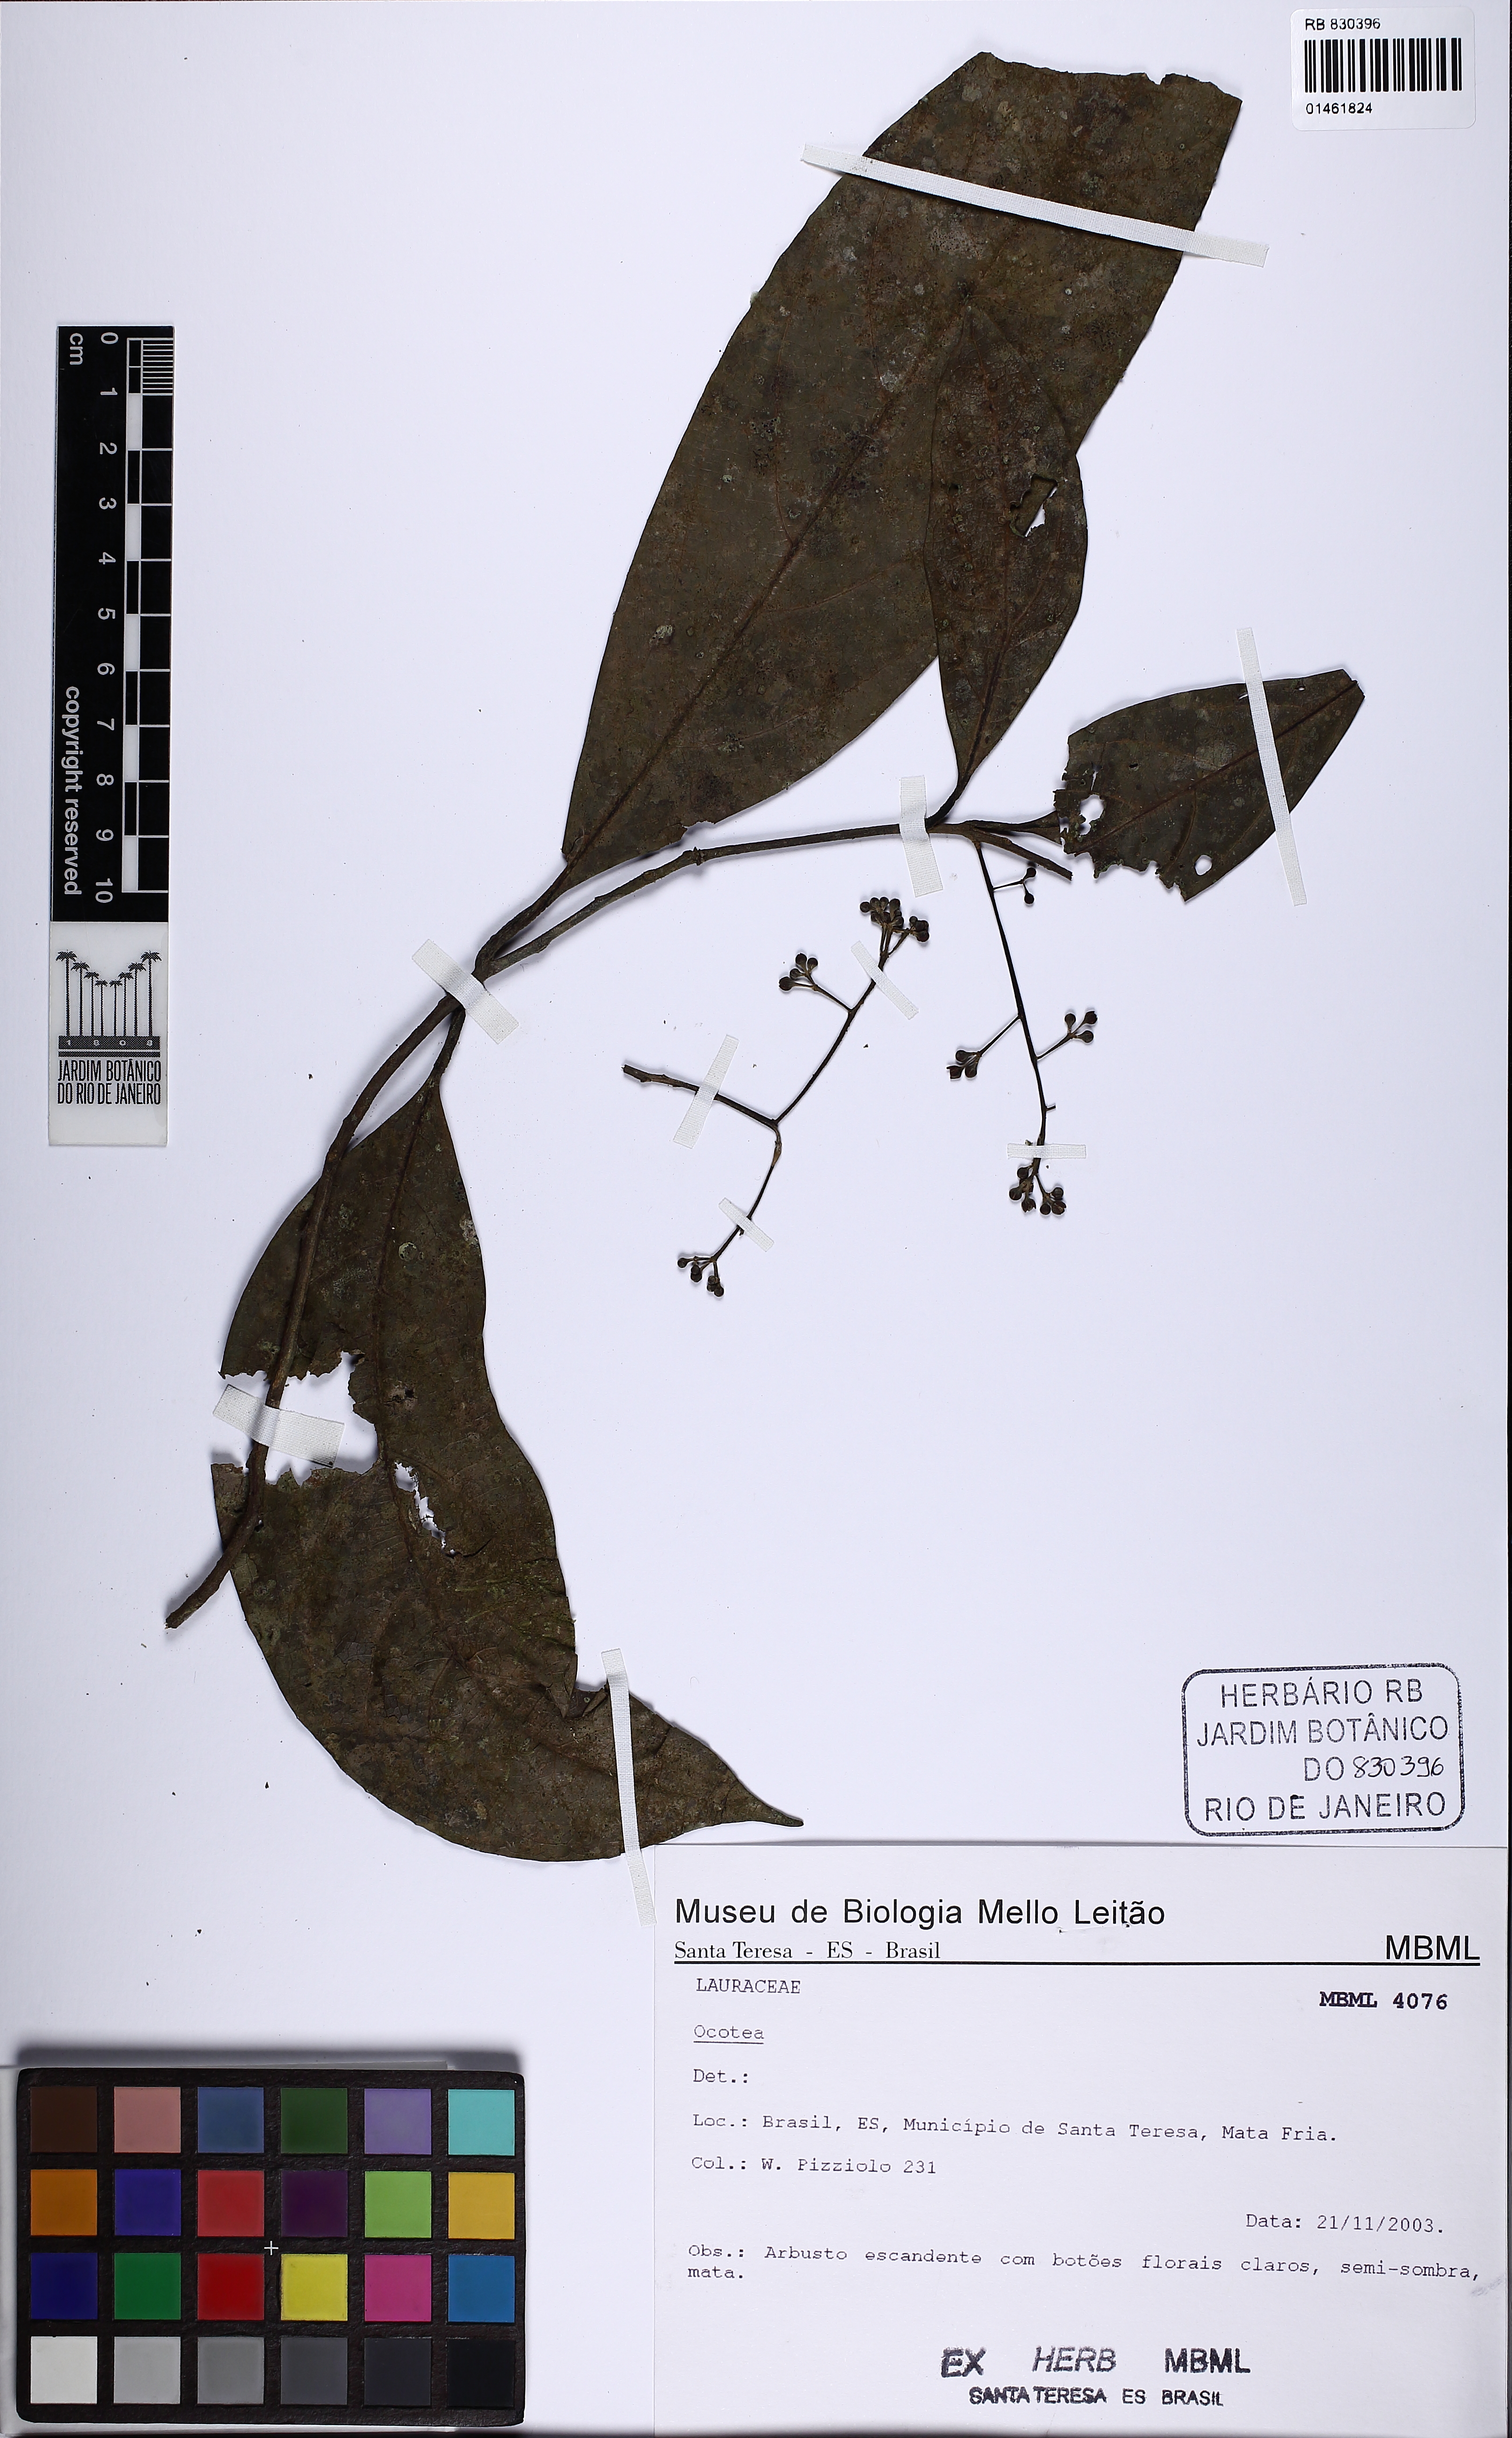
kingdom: Plantae
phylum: Tracheophyta
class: Magnoliopsida
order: Laurales
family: Lauraceae
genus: Ocotea
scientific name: Ocotea
